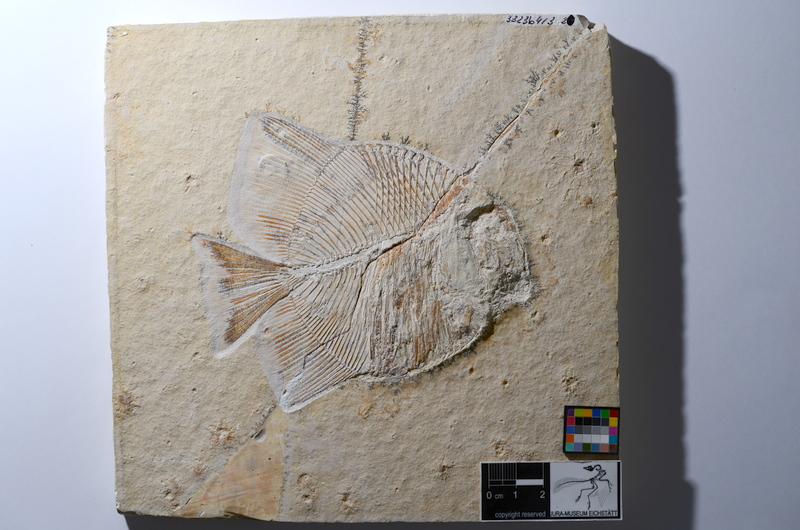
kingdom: Animalia
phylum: Chordata
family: Pycnodontidae
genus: Turbomesodon
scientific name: Turbomesodon relegans
